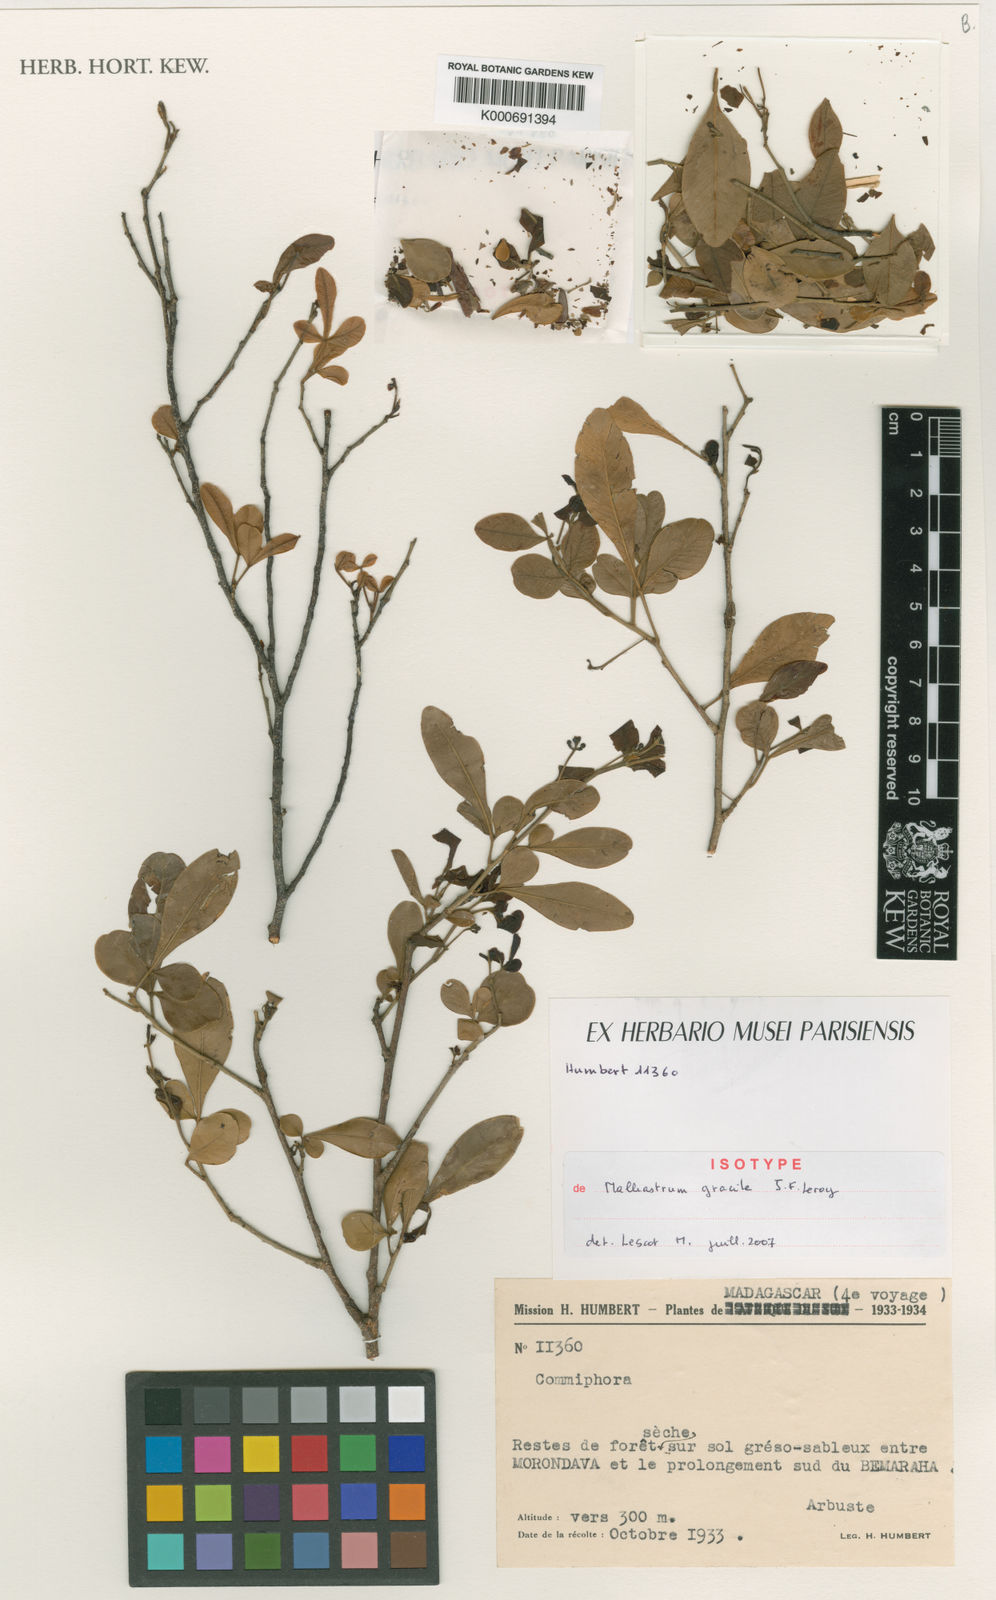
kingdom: Plantae
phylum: Tracheophyta
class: Magnoliopsida
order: Sapindales
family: Meliaceae
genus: Malleastrum
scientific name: Malleastrum gracile
